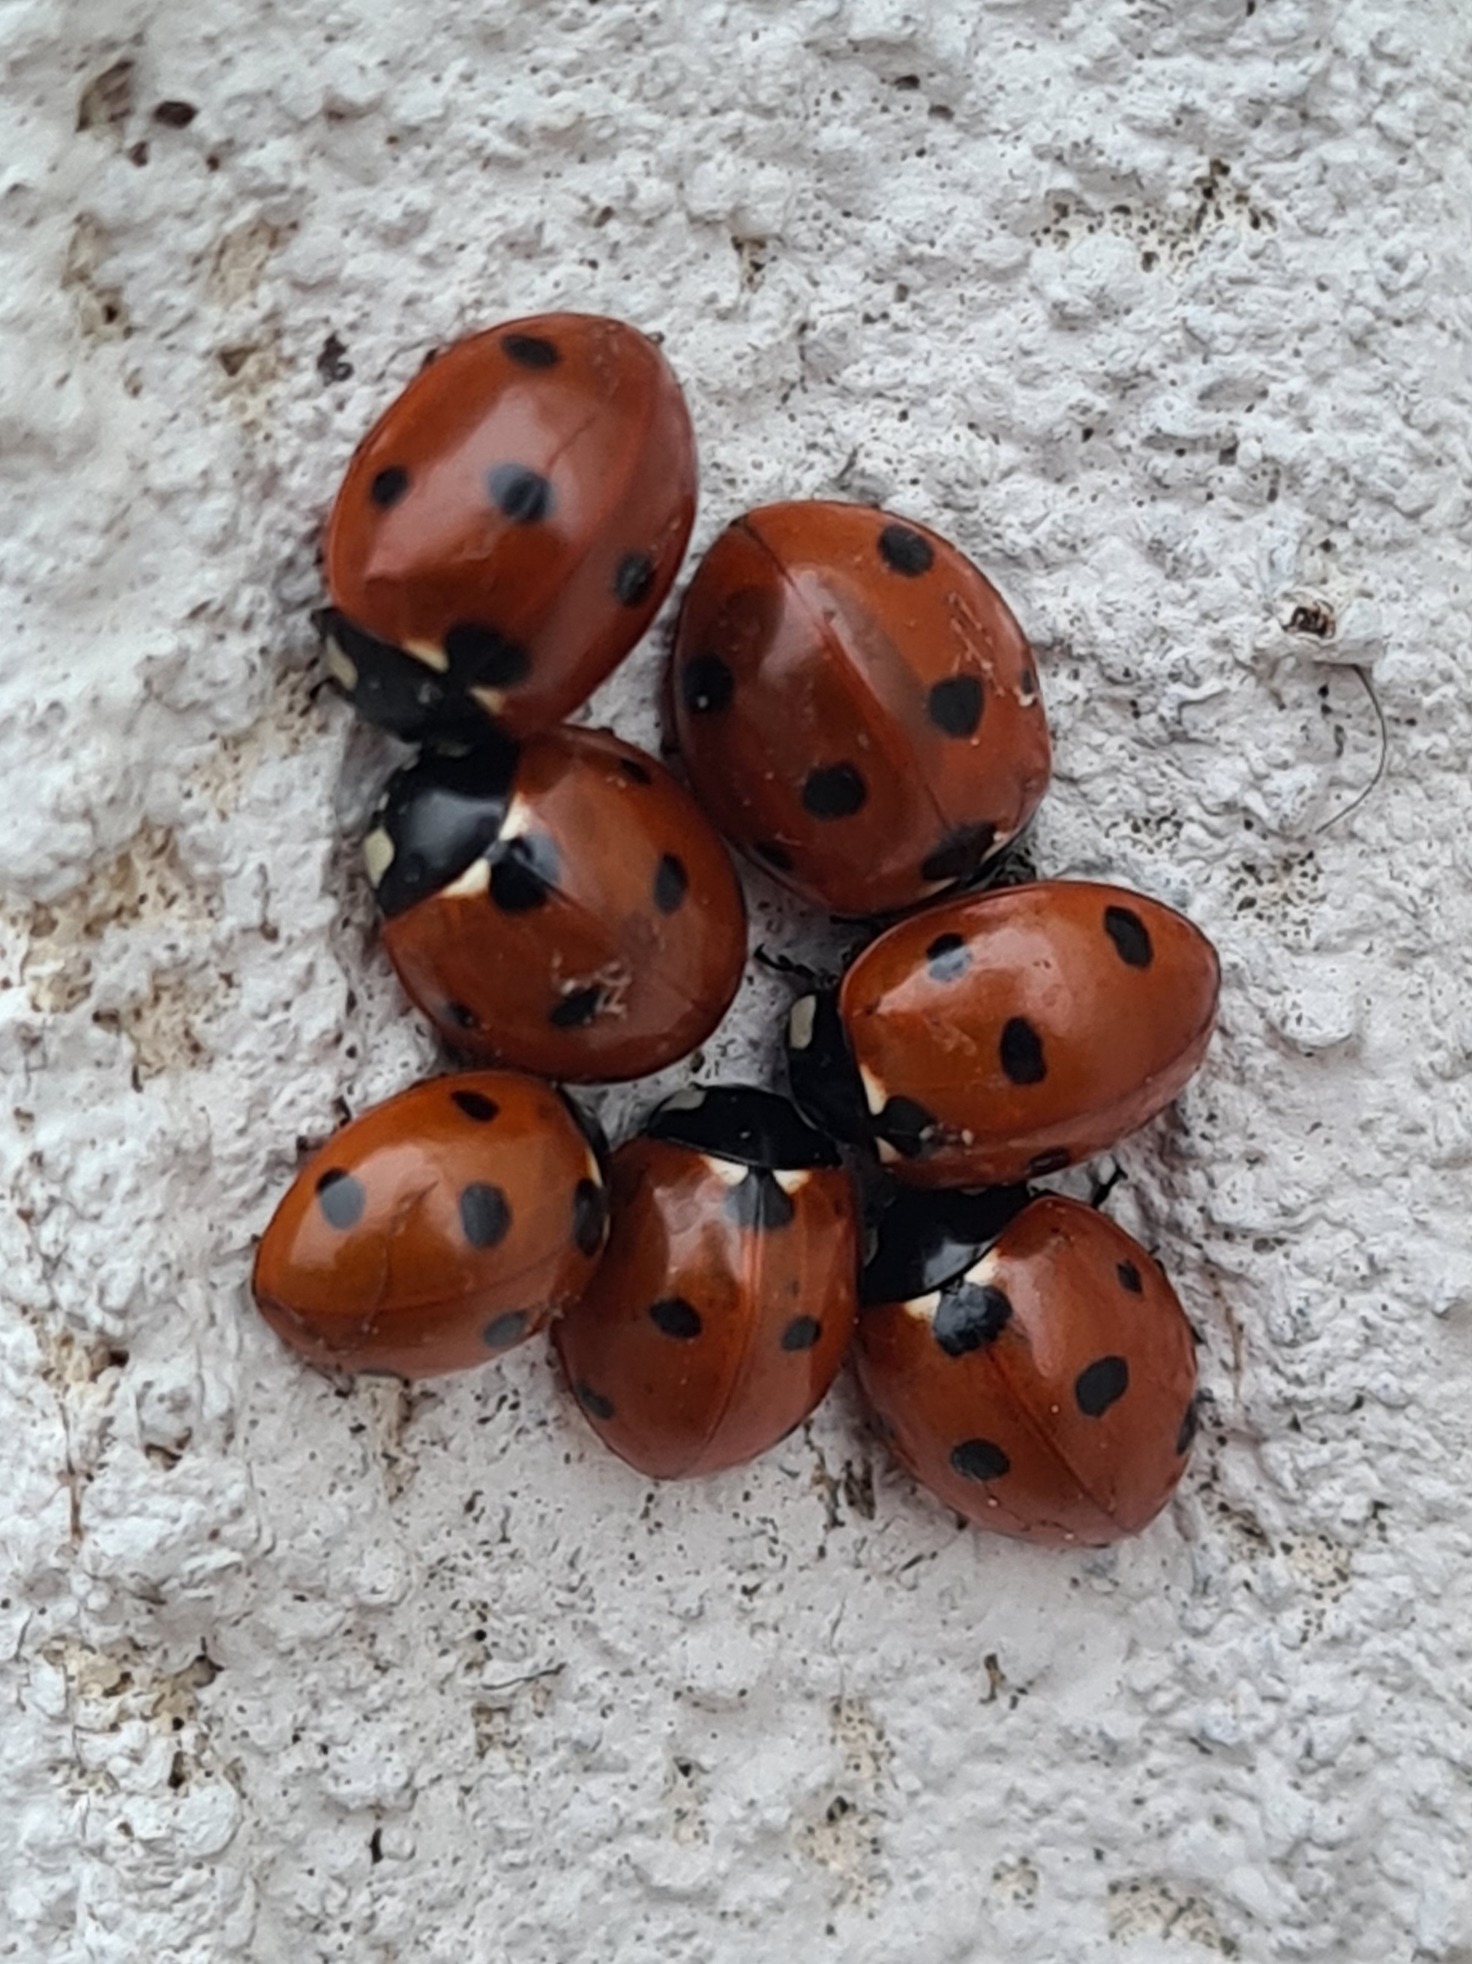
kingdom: Animalia
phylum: Arthropoda
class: Insecta
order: Coleoptera
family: Coccinellidae
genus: Coccinella
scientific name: Coccinella septempunctata
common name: Syvplettet mariehøne
